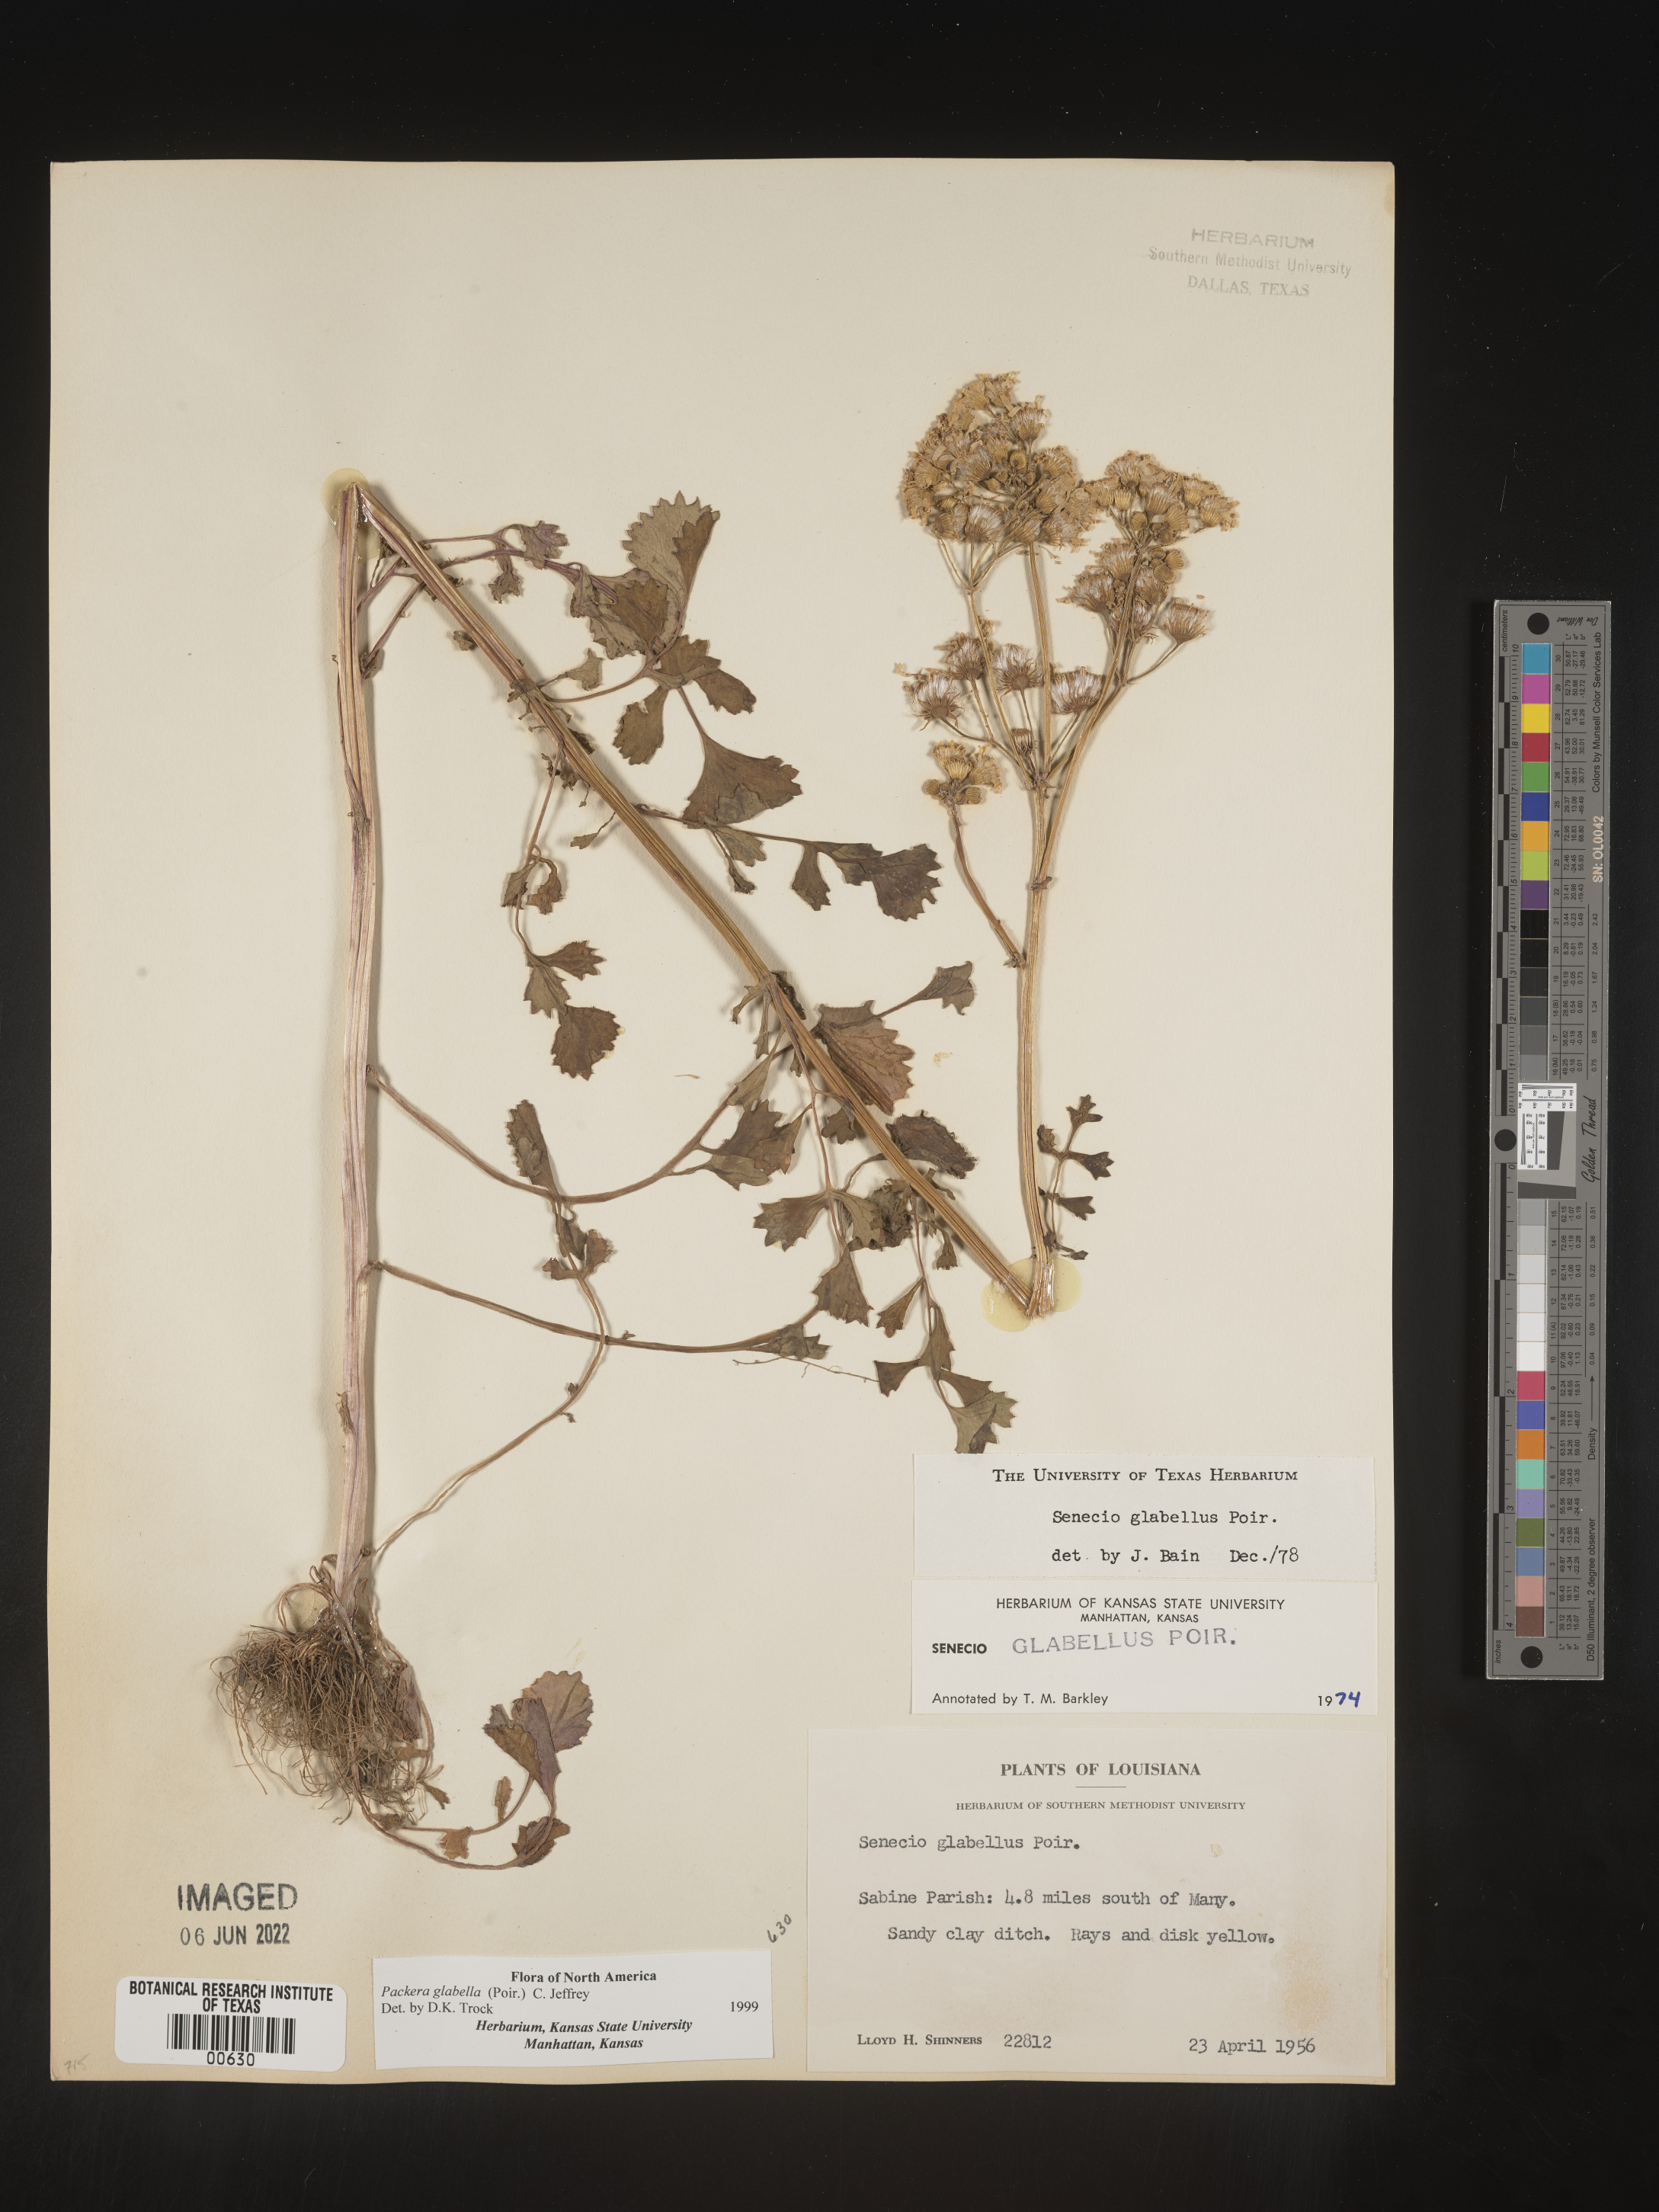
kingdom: Plantae
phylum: Tracheophyta
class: Magnoliopsida
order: Asterales
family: Asteraceae
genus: Packera
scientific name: Packera glabella
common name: Butterweed
